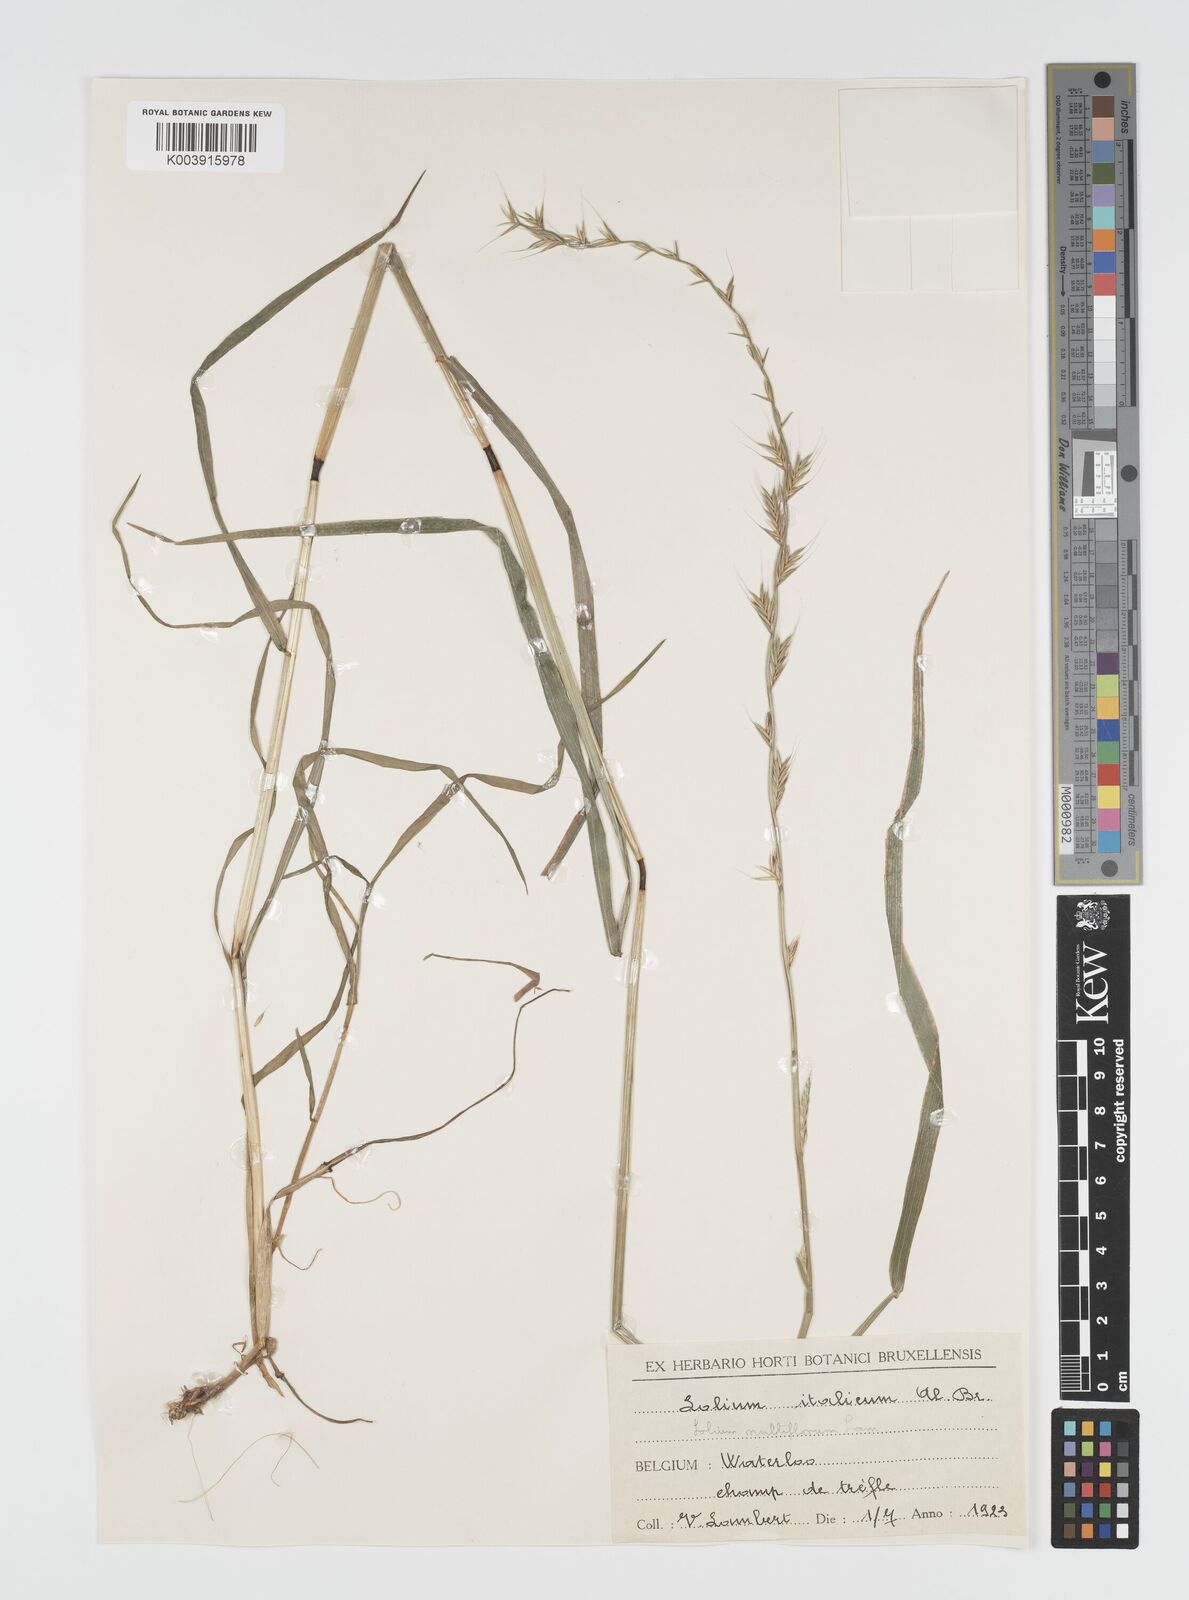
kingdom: Plantae
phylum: Tracheophyta
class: Liliopsida
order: Poales
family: Poaceae
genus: Lolium
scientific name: Lolium multiflorum
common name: Annual ryegrass
